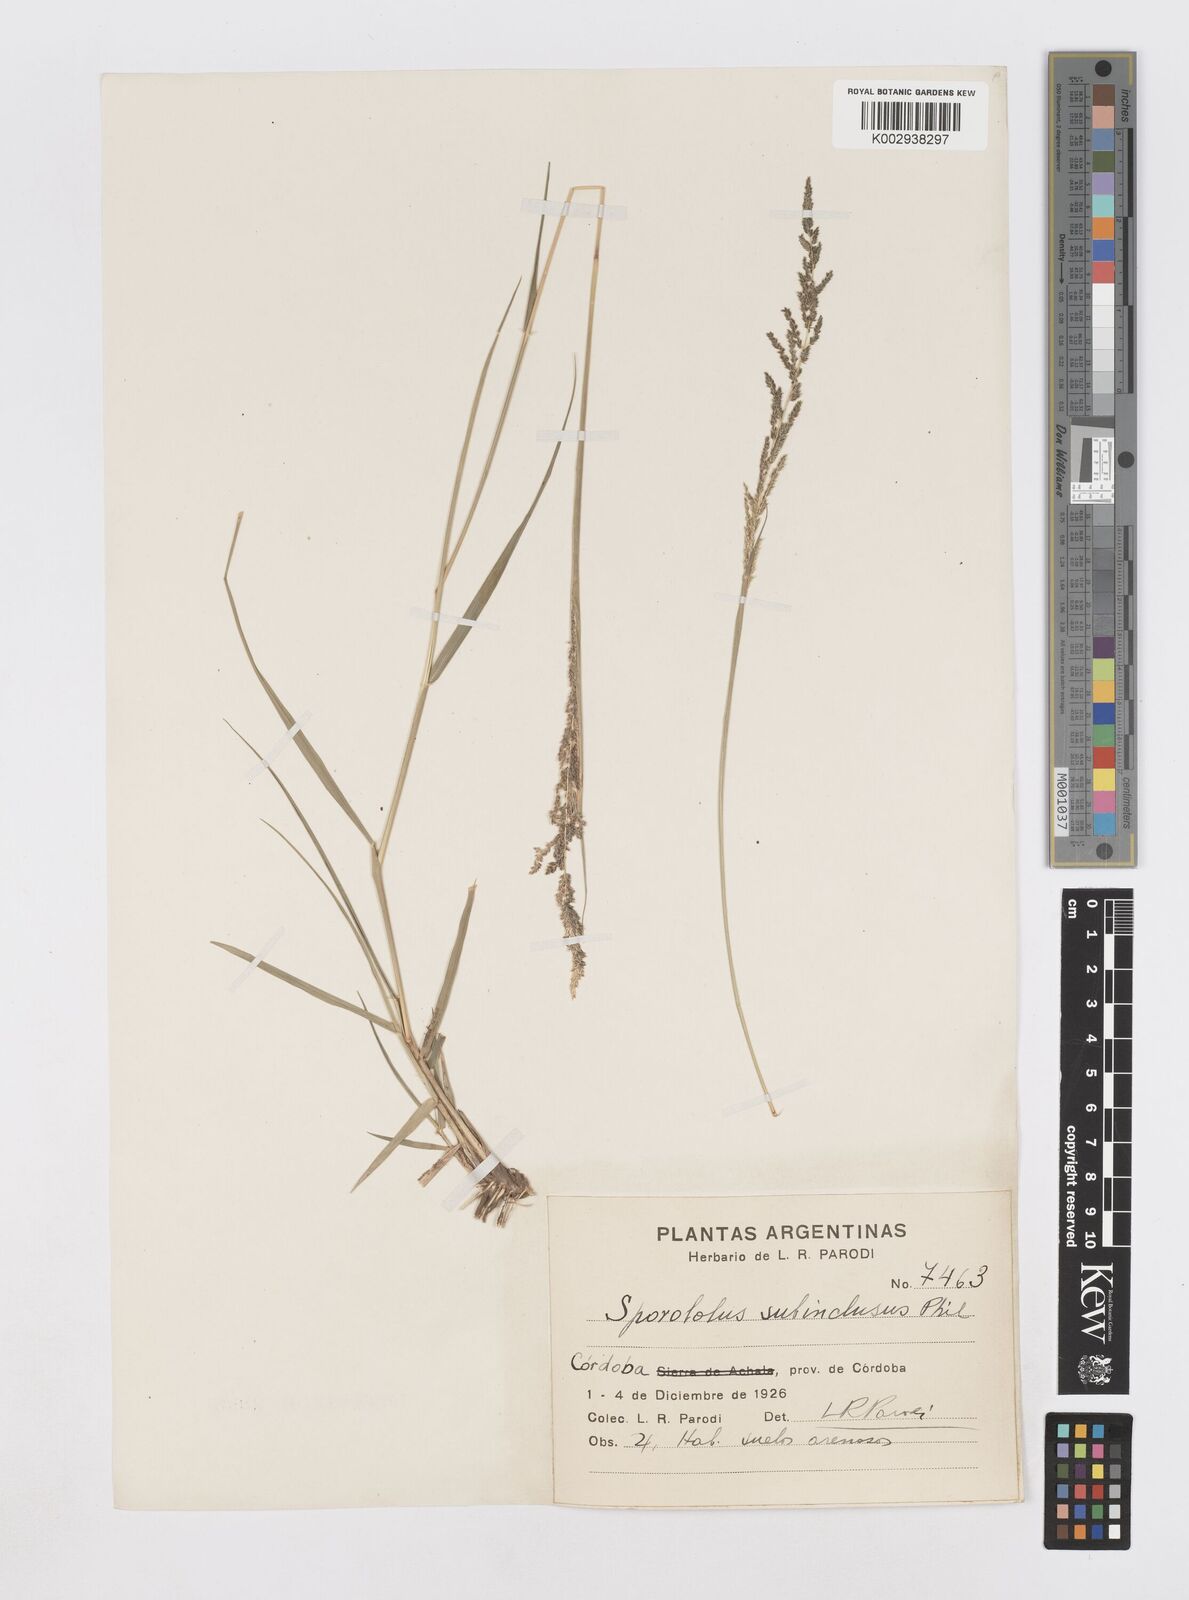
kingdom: Plantae
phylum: Tracheophyta
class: Liliopsida
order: Poales
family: Poaceae
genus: Sporobolus
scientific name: Sporobolus cryptandrus
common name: Sand dropseed
